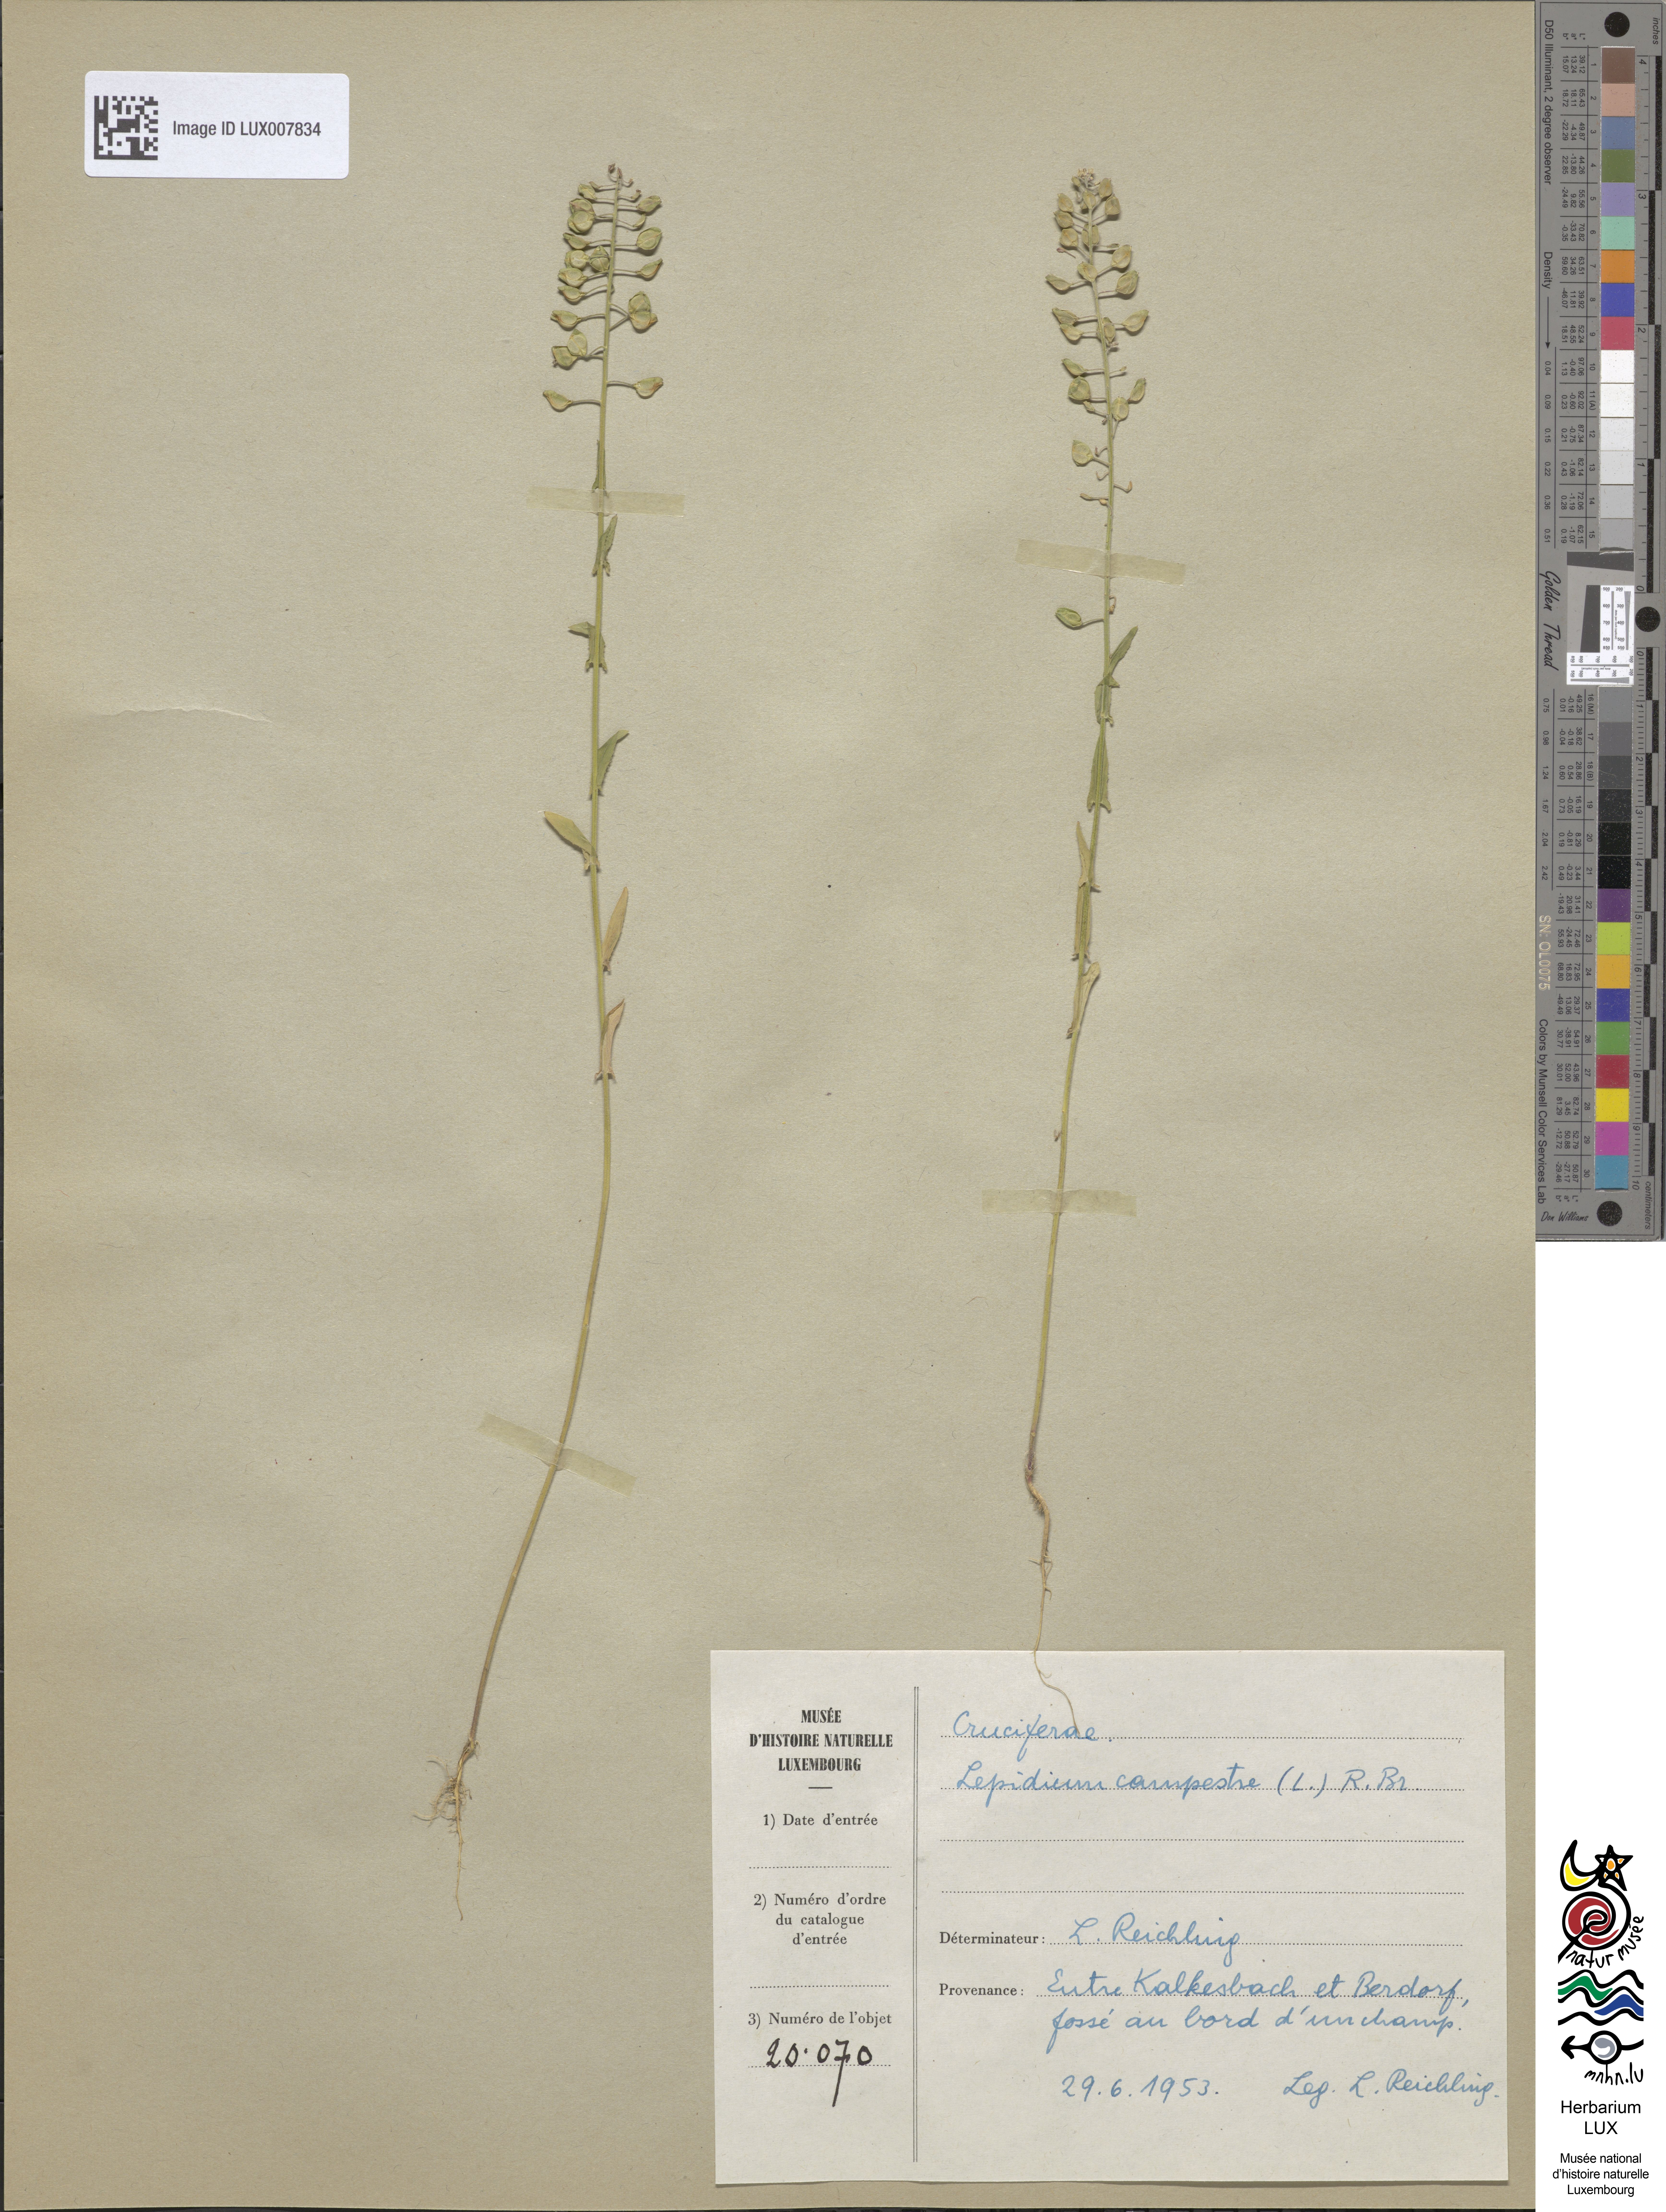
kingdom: Plantae
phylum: Tracheophyta
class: Magnoliopsida
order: Brassicales
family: Brassicaceae
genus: Lepidium
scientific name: Lepidium campestre
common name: Field pepperwort
